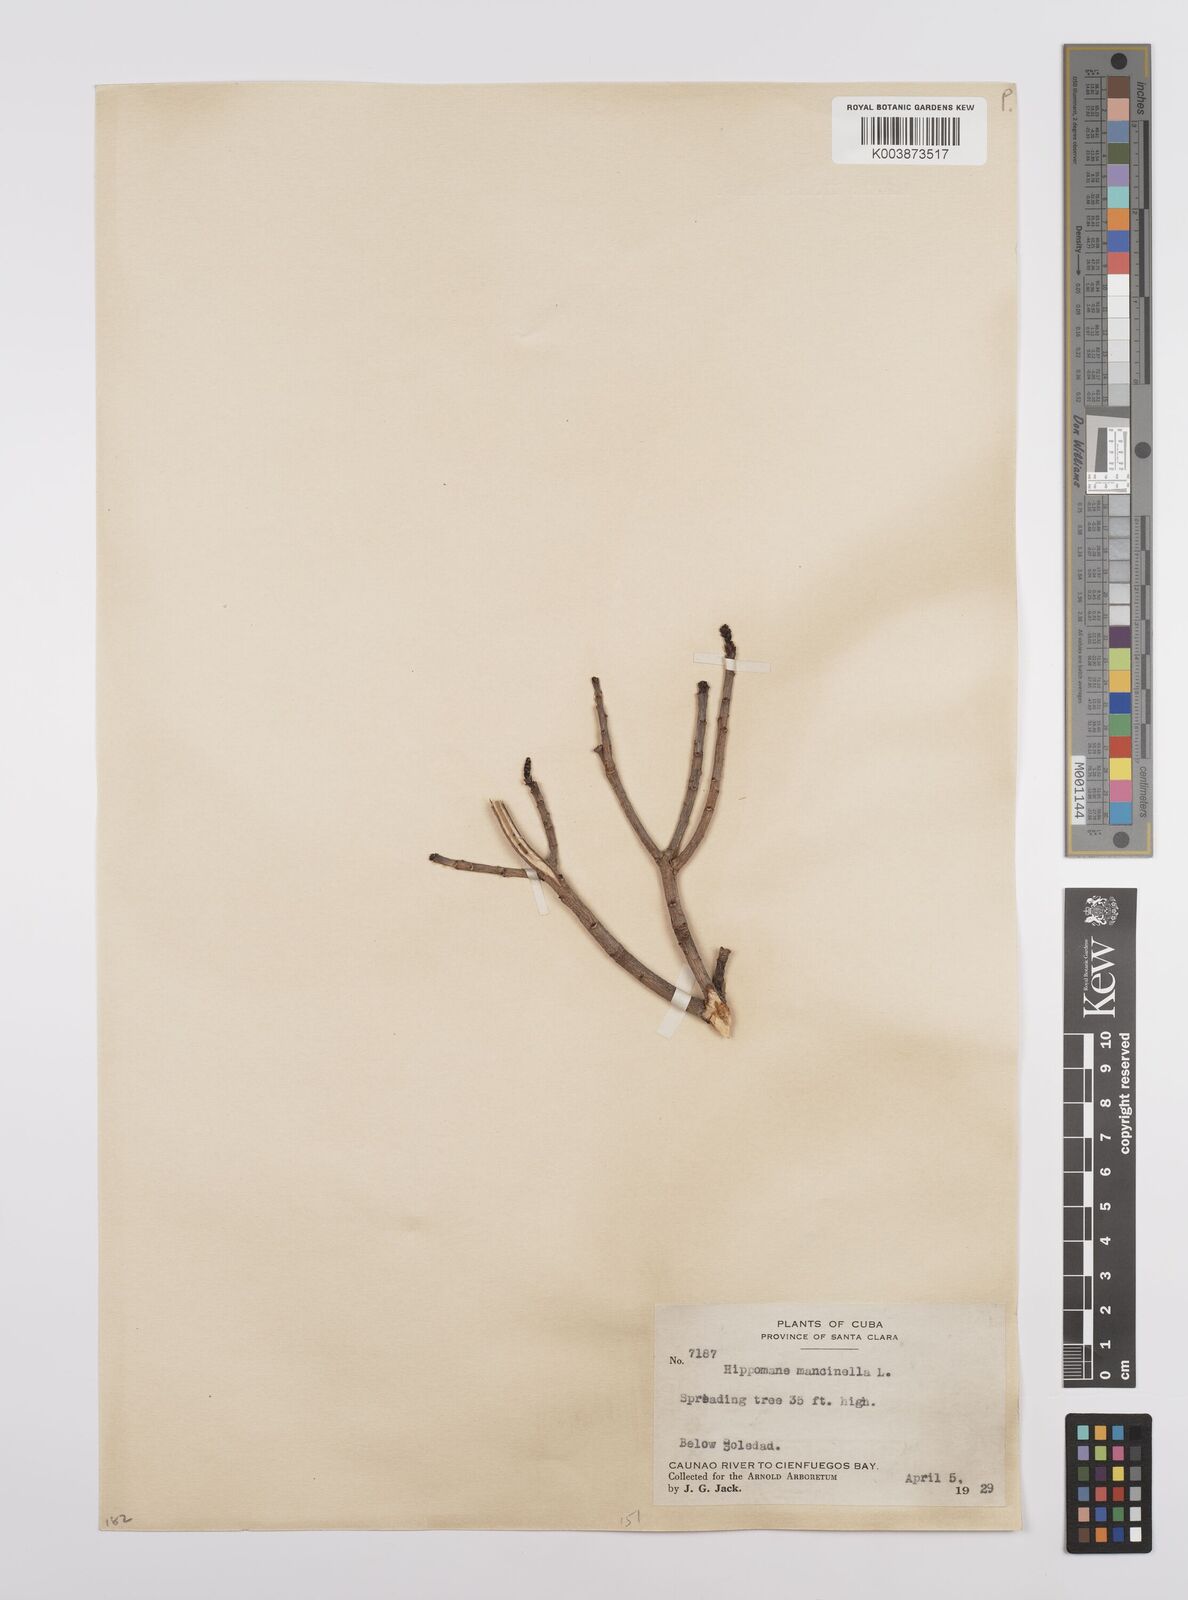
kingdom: Plantae
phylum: Tracheophyta
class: Magnoliopsida
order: Malpighiales
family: Euphorbiaceae
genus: Hippomane
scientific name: Hippomane mancinella
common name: Manchineel
